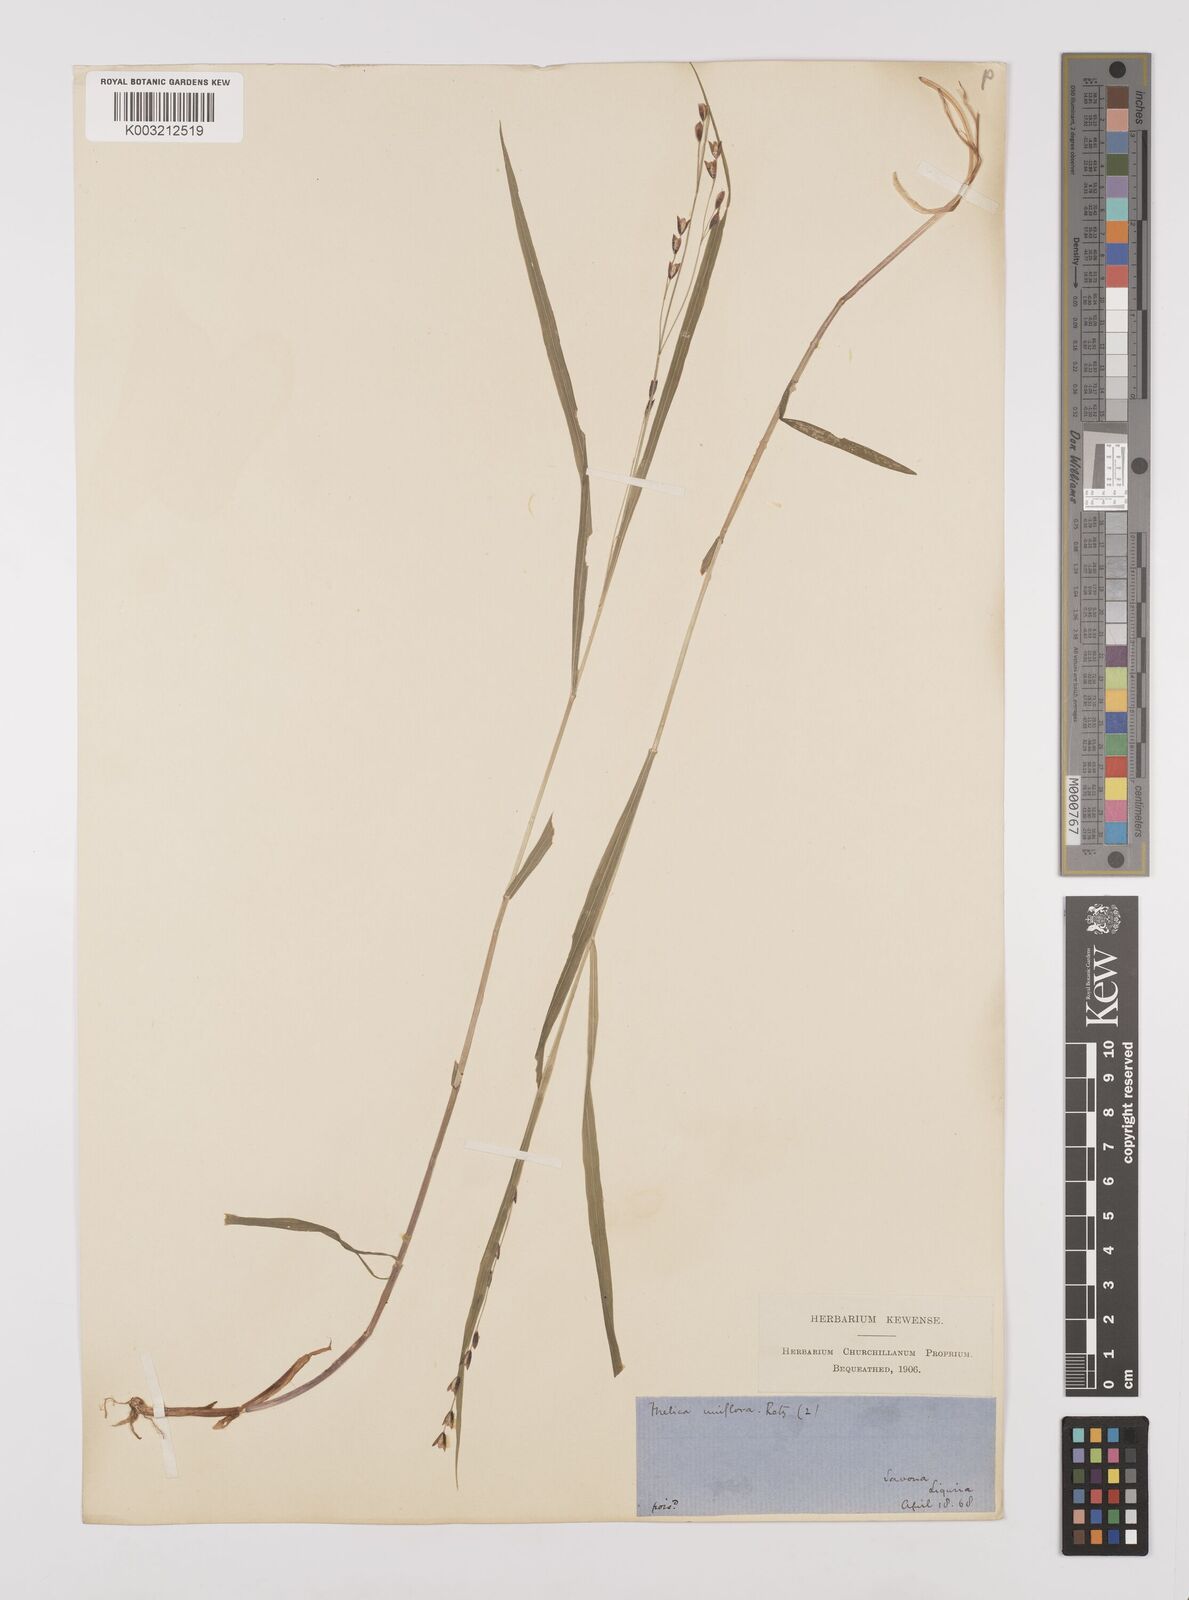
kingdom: Plantae
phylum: Tracheophyta
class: Liliopsida
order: Poales
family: Poaceae
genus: Melica
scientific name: Melica uniflora
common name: Wood melick
